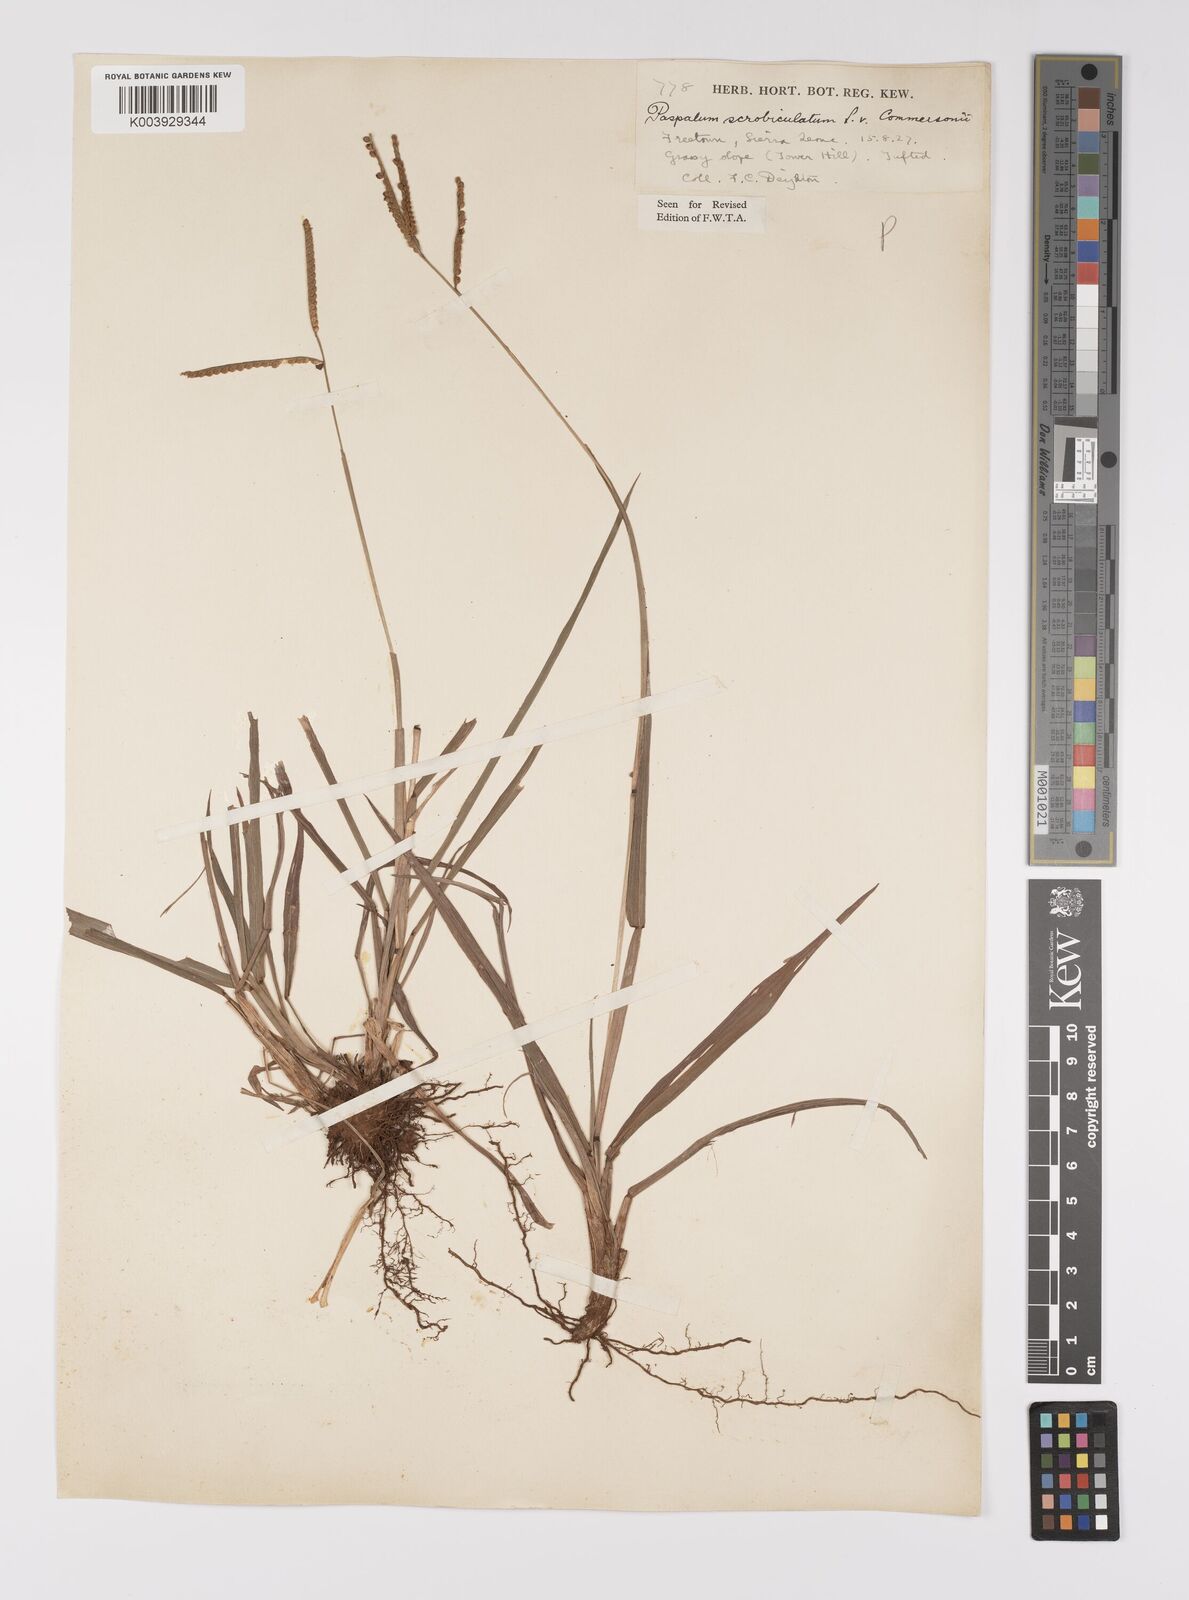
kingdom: Plantae
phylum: Tracheophyta
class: Liliopsida
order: Poales
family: Poaceae
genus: Paspalum
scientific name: Paspalum scrobiculatum
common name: Kodo millet
